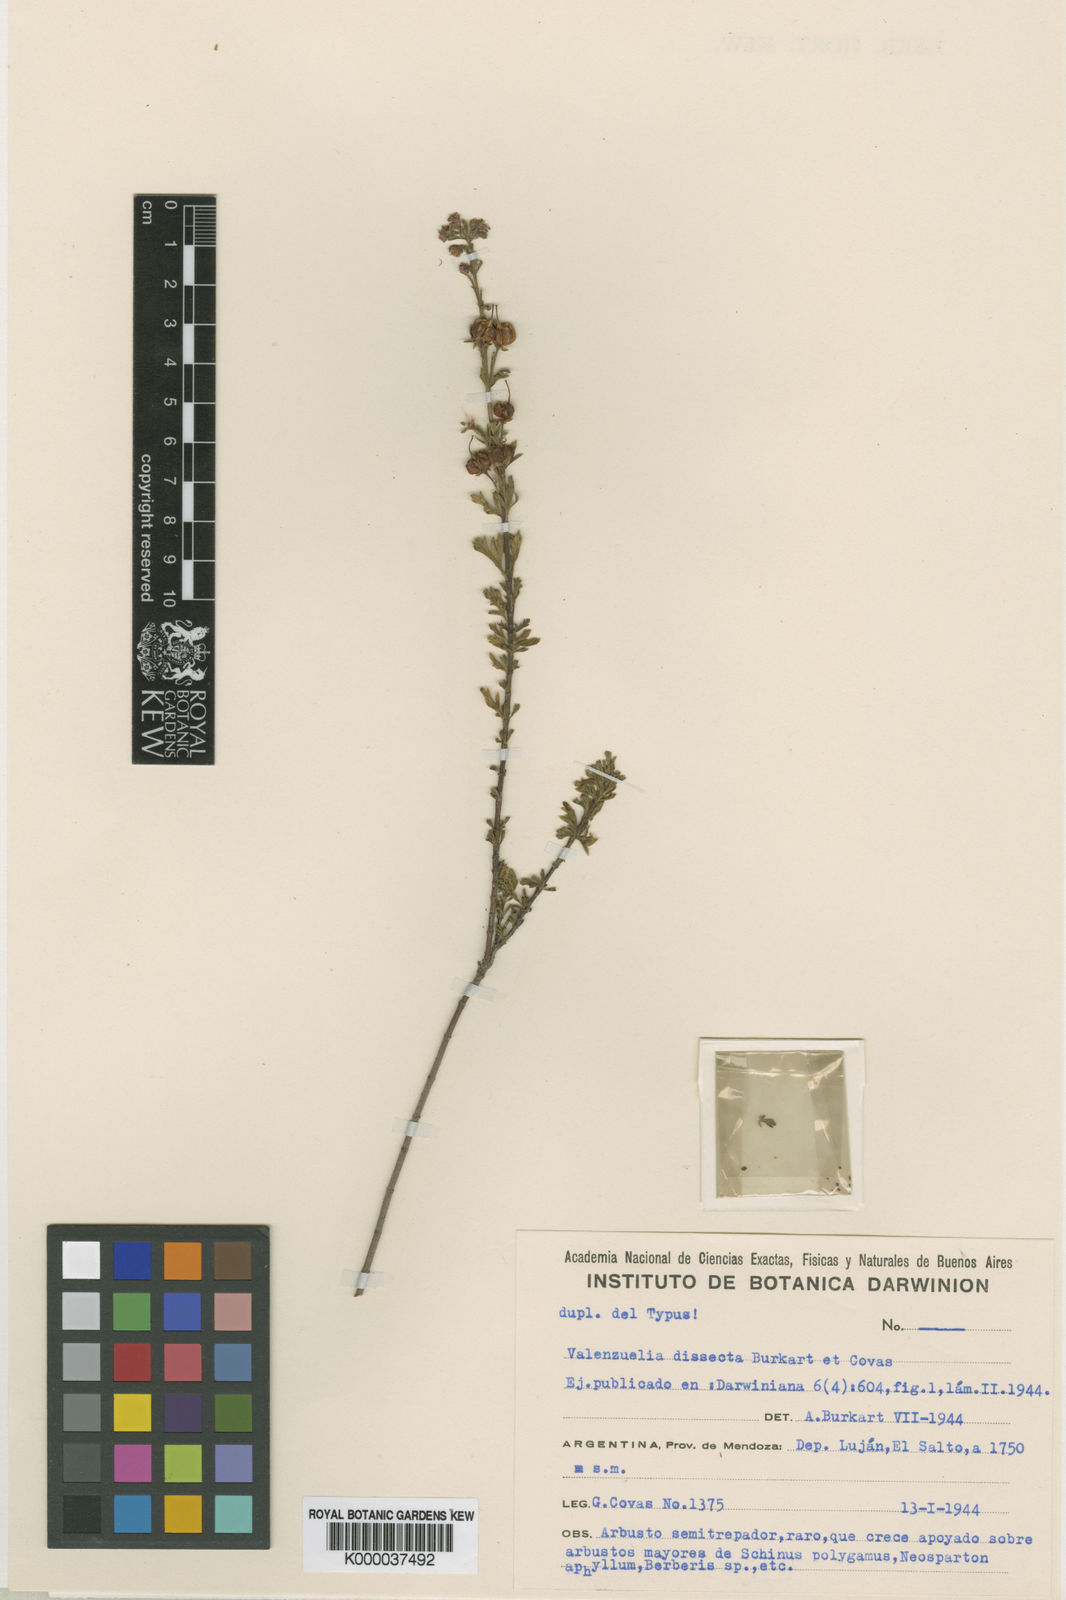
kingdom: Plantae
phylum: Tracheophyta
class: Magnoliopsida
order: Sapindales
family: Sapindaceae
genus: Guindilia
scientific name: Guindilia dissecta
